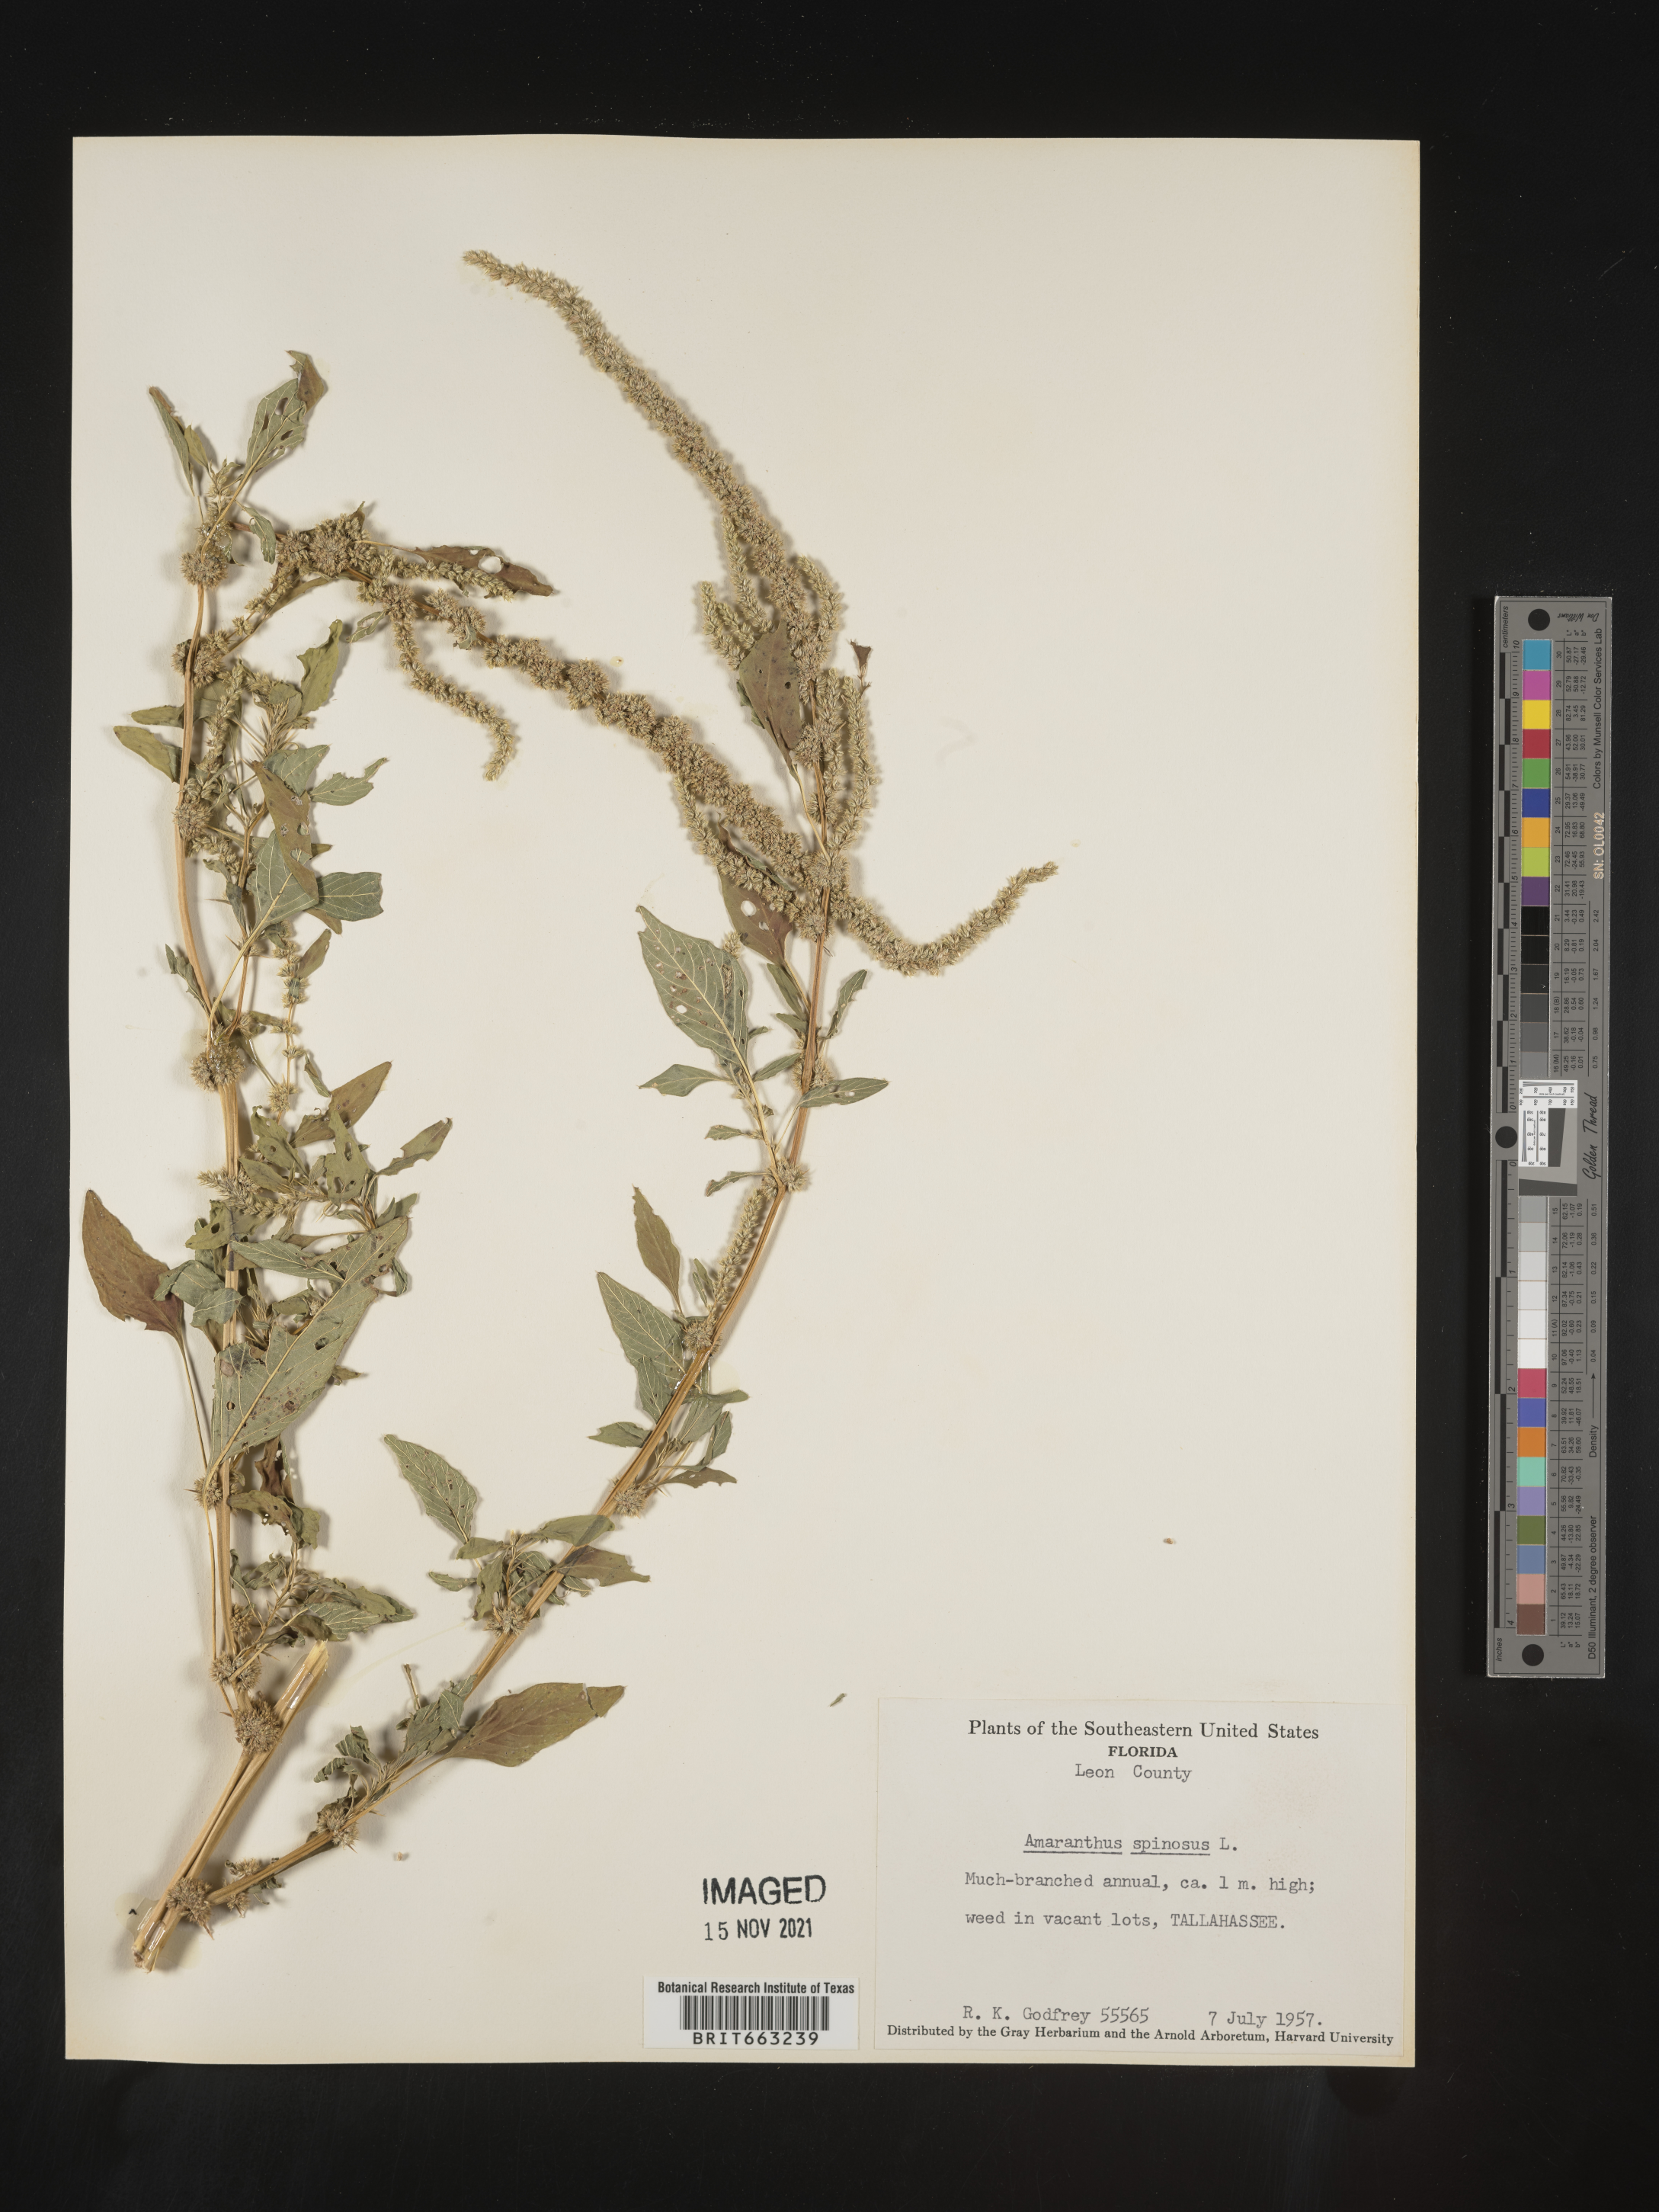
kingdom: Plantae
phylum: Tracheophyta
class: Magnoliopsida
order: Caryophyllales
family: Amaranthaceae
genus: Amaranthus
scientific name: Amaranthus spinosus
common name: Spiny amaranth
